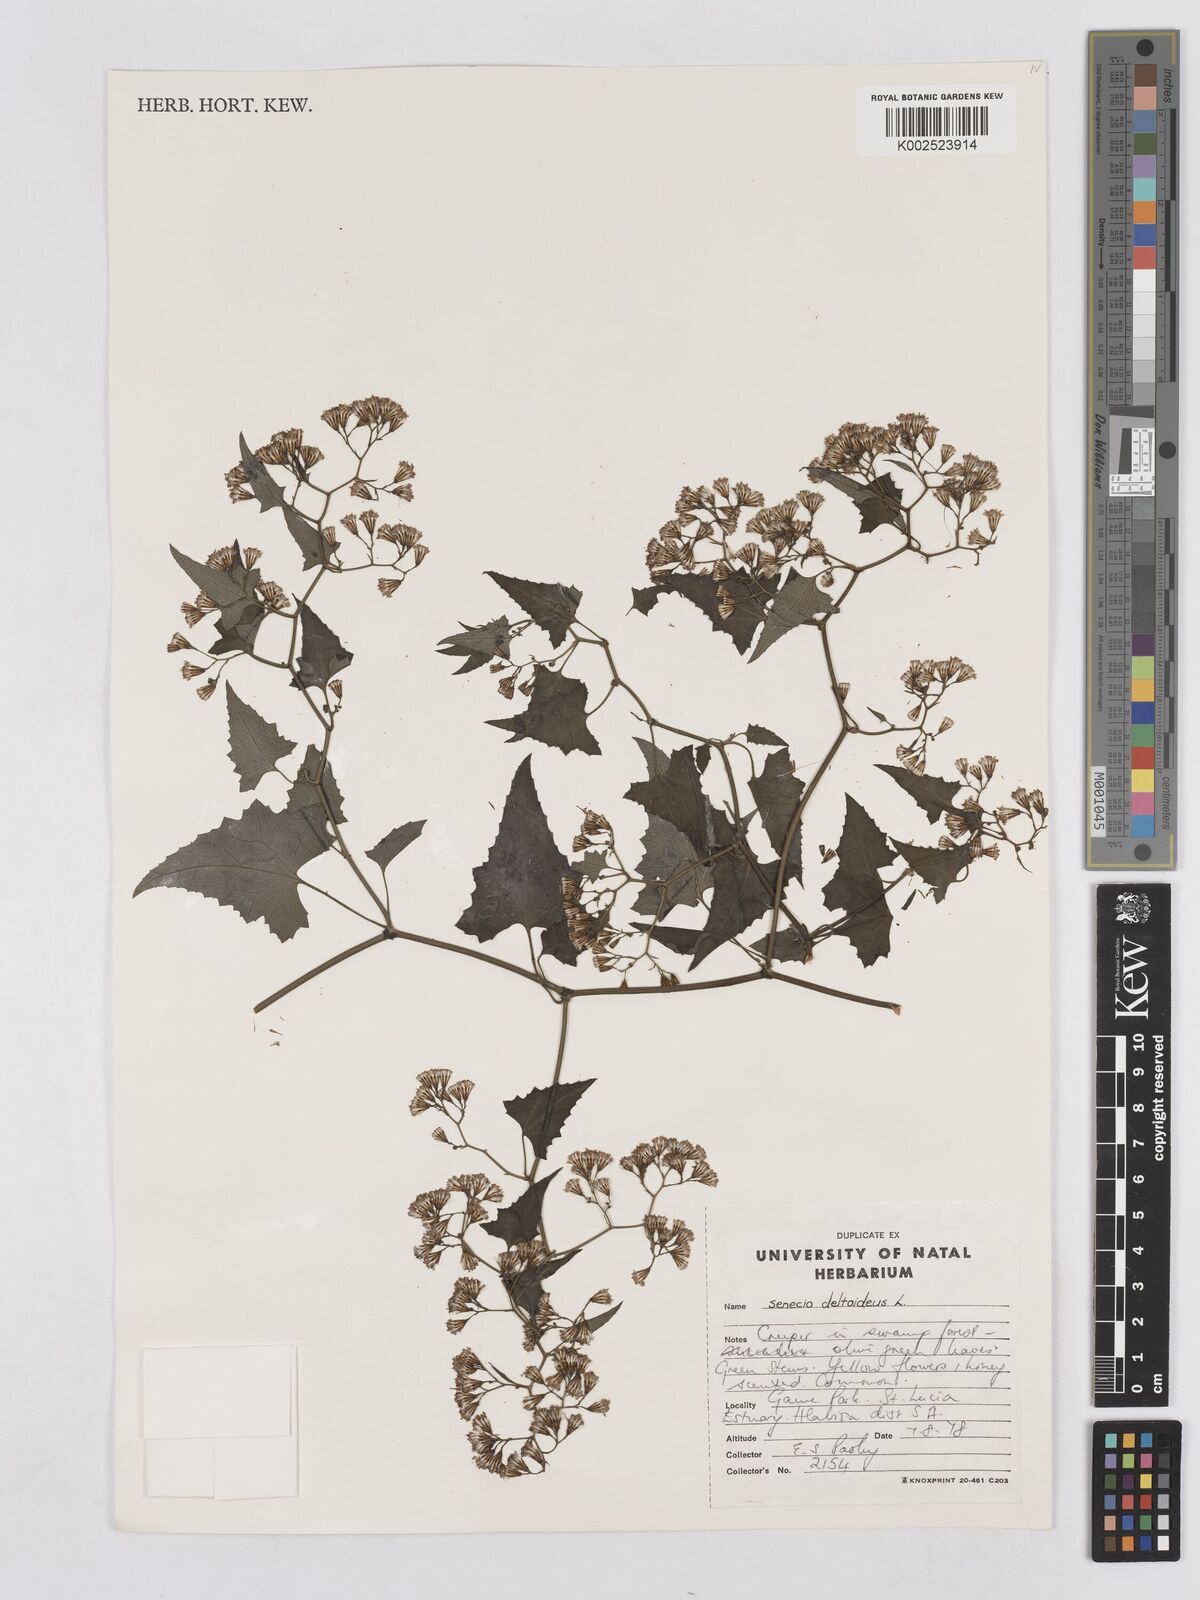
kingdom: Plantae
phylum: Tracheophyta
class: Magnoliopsida
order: Asterales
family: Asteraceae
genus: Senecio
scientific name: Senecio deltoideus
